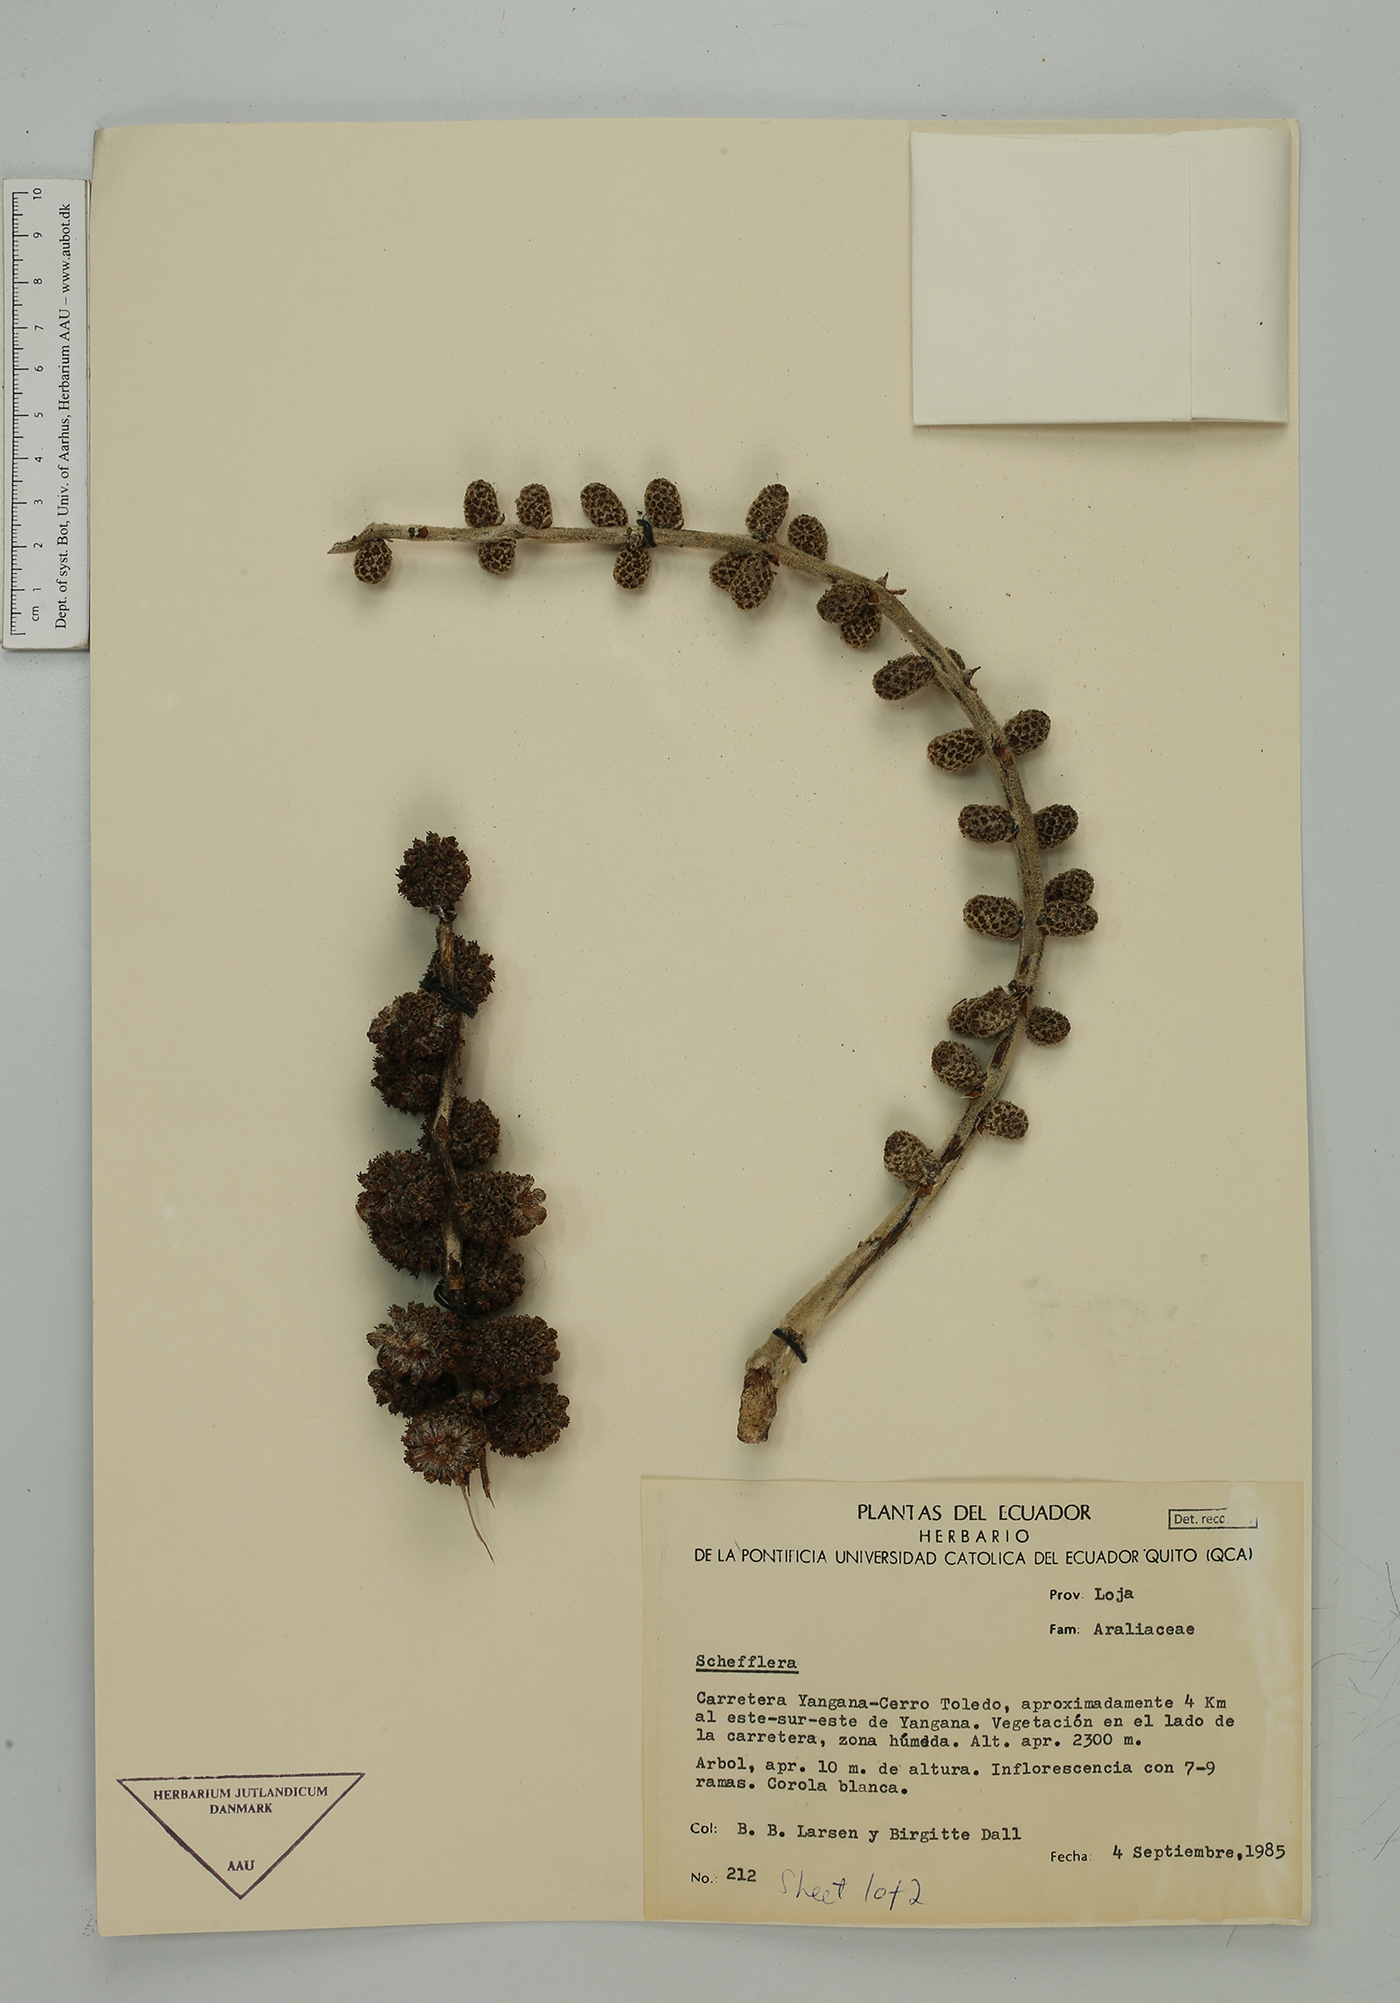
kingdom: Plantae
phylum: Tracheophyta
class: Magnoliopsida
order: Apiales
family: Araliaceae
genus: Sciodaphyllum
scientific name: Sciodaphyllum
